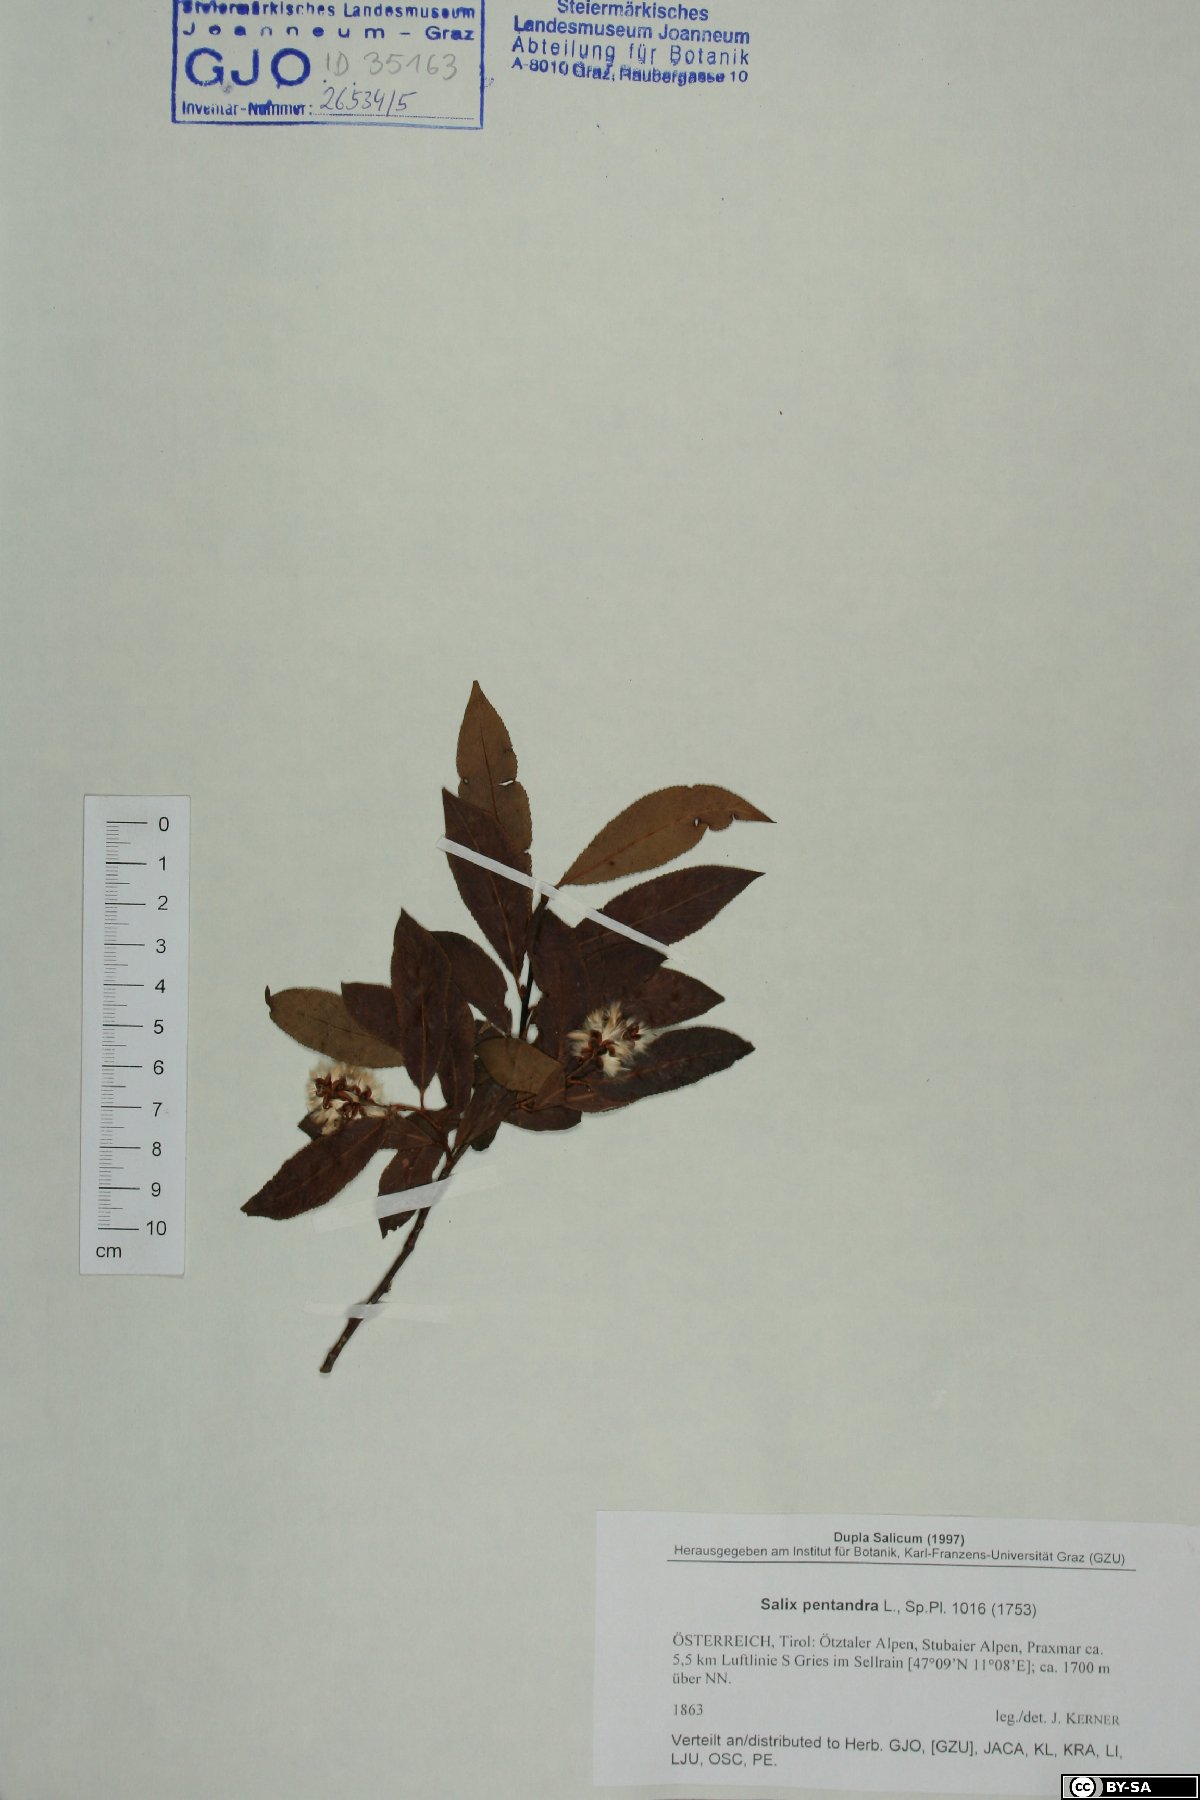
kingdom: Plantae
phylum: Tracheophyta
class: Magnoliopsida
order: Malpighiales
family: Salicaceae
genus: Salix
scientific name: Salix pentandra
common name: Bay willow
